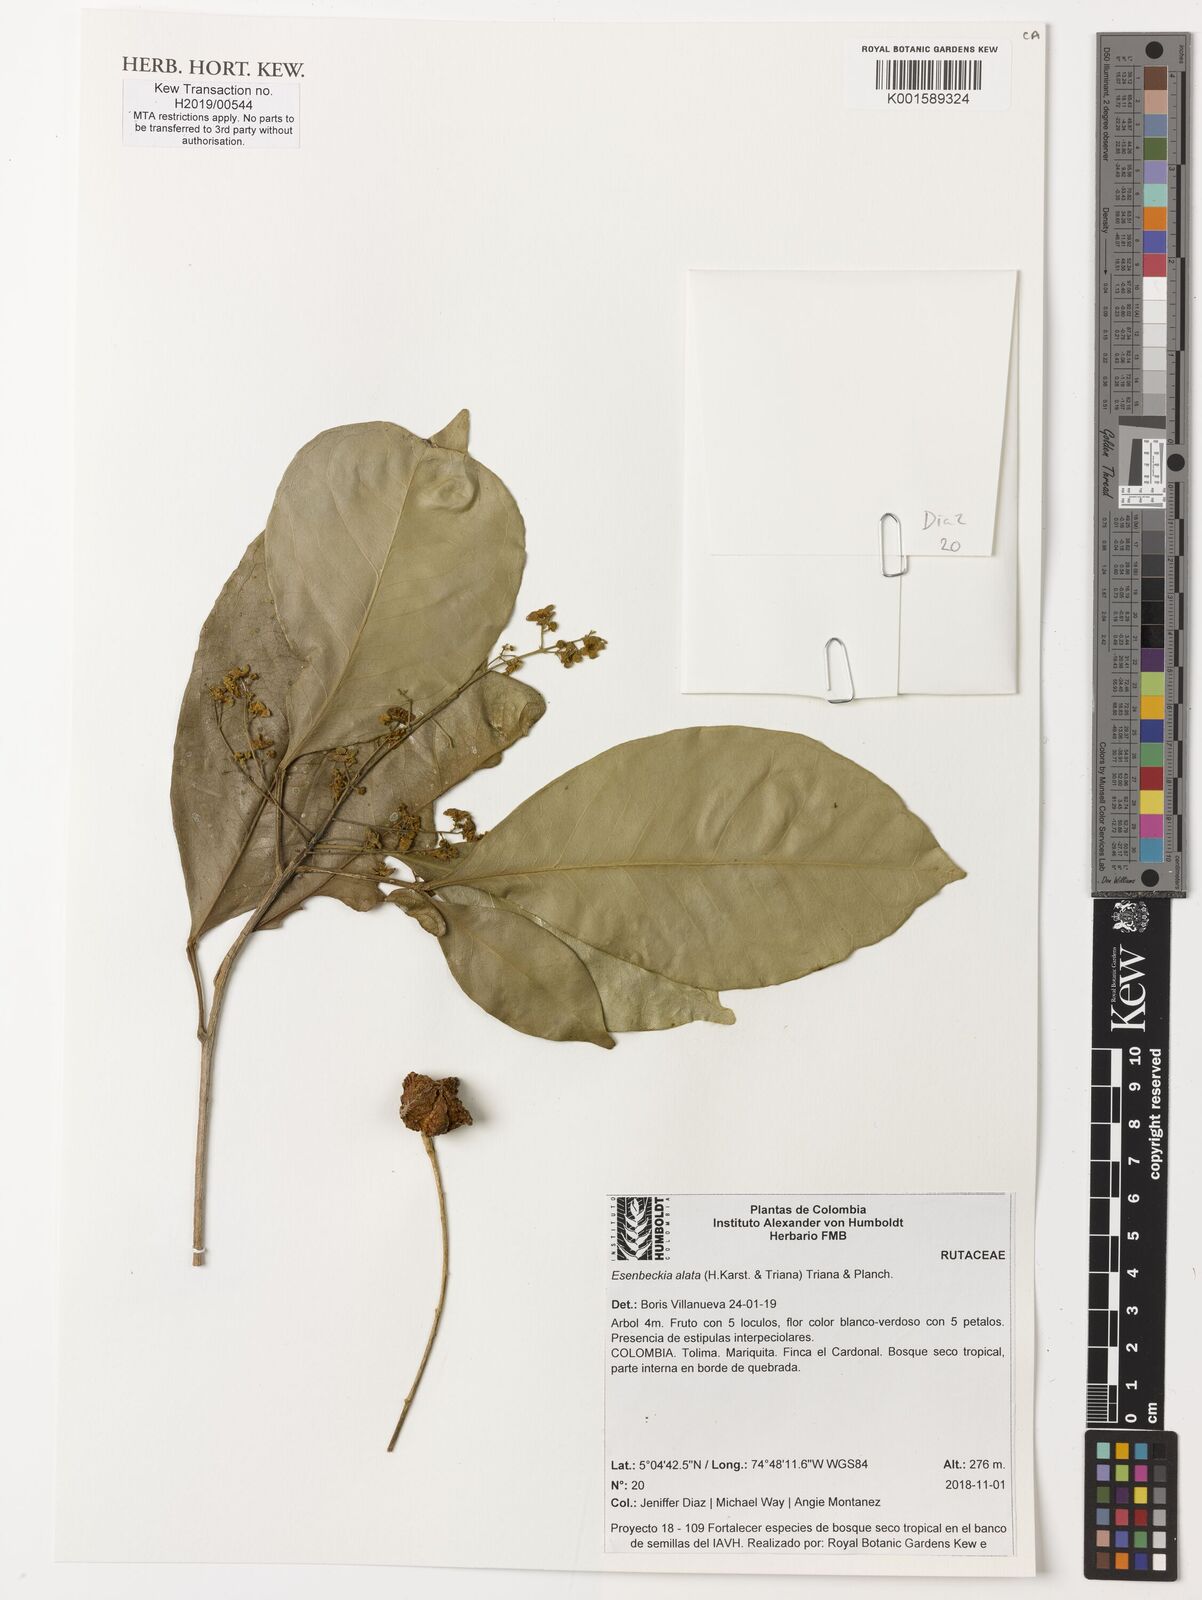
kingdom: Plantae
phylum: Tracheophyta
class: Magnoliopsida
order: Sapindales
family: Rutaceae
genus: Esenbeckia
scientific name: Esenbeckia alata
